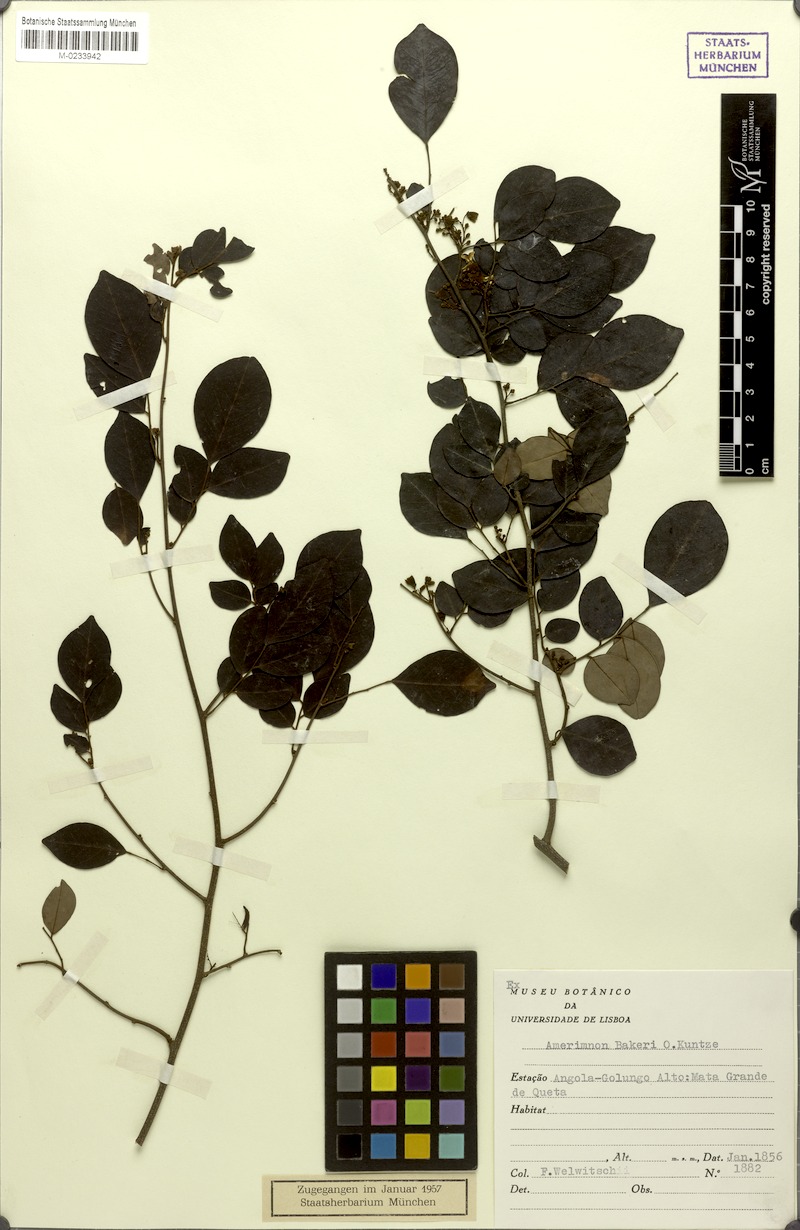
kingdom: Plantae
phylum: Tracheophyta
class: Magnoliopsida
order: Fabales
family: Fabaceae
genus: Dalbergia
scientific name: Dalbergia bakeri
